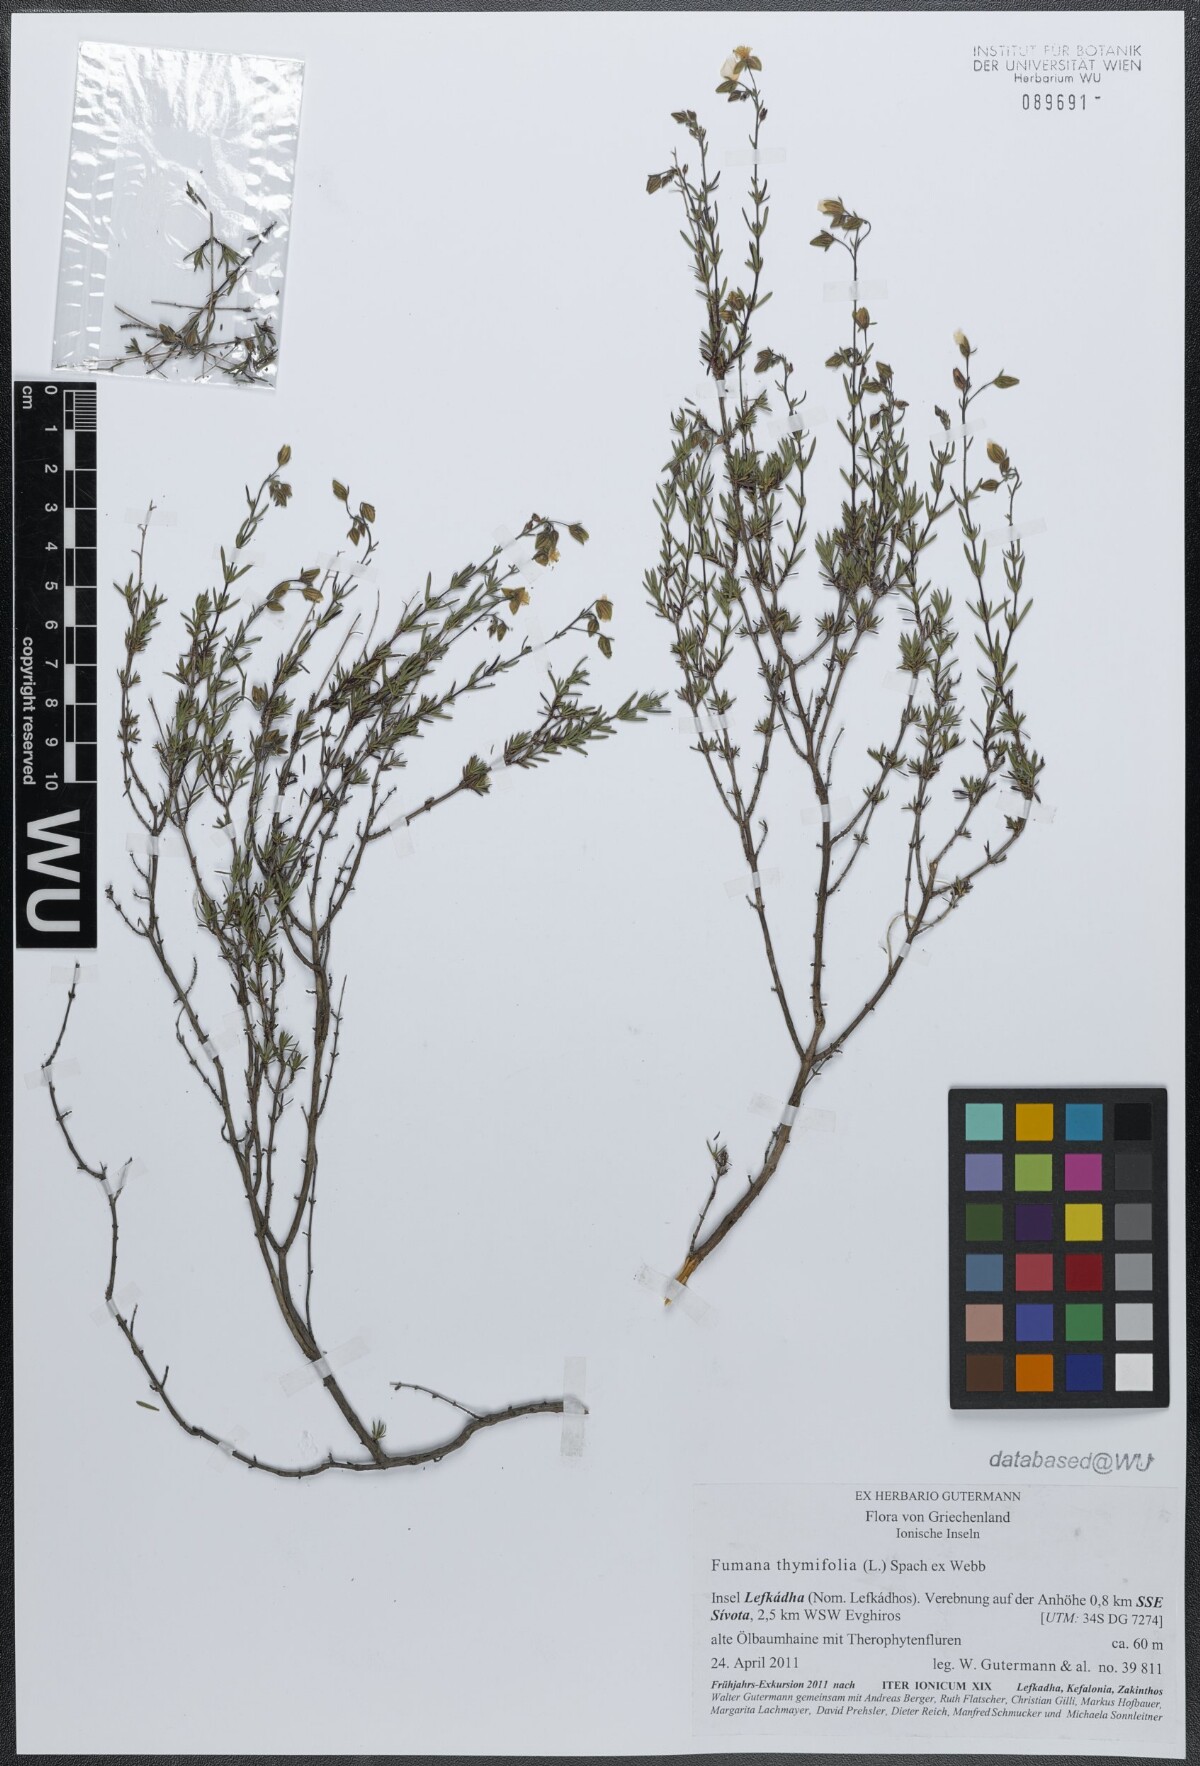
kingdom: Plantae
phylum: Tracheophyta
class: Magnoliopsida
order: Malvales
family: Cistaceae
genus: Fumana
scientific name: Fumana thymifolia
